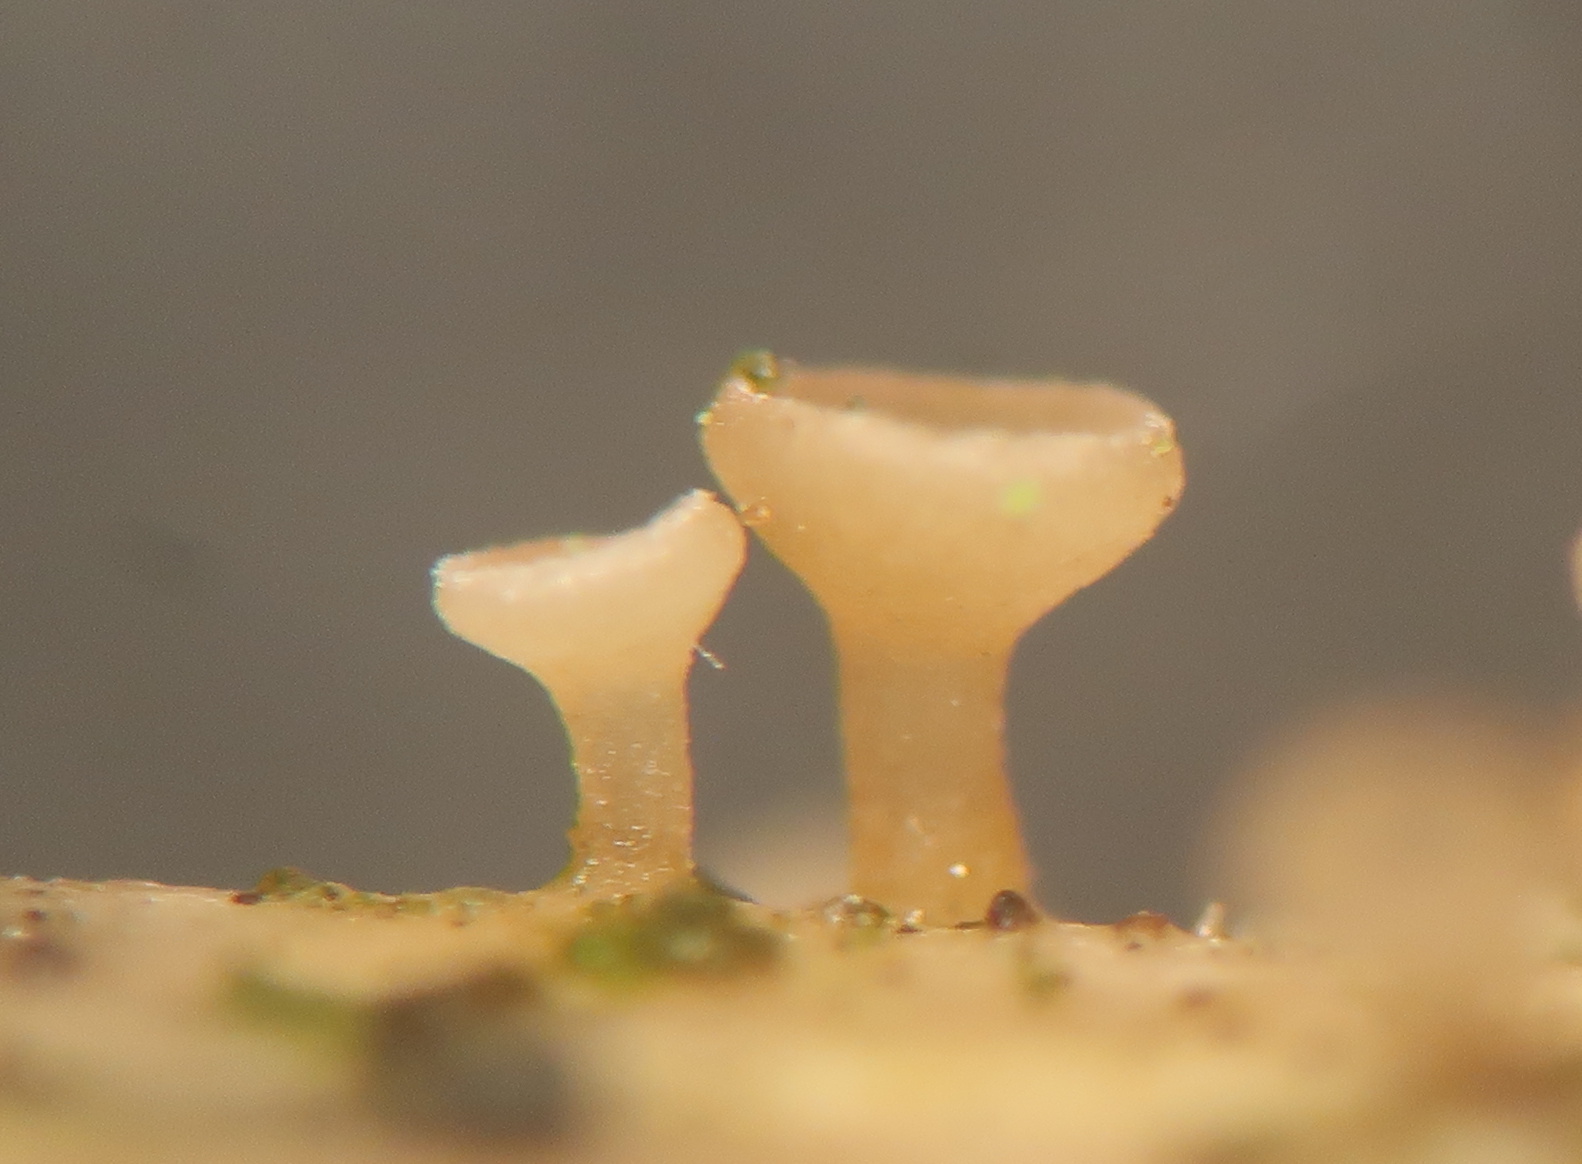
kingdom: Fungi
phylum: Ascomycota
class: Leotiomycetes
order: Helotiales
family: Helotiaceae
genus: Cyathicula
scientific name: Cyathicula cyathoidea
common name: pokal-stilkskive
